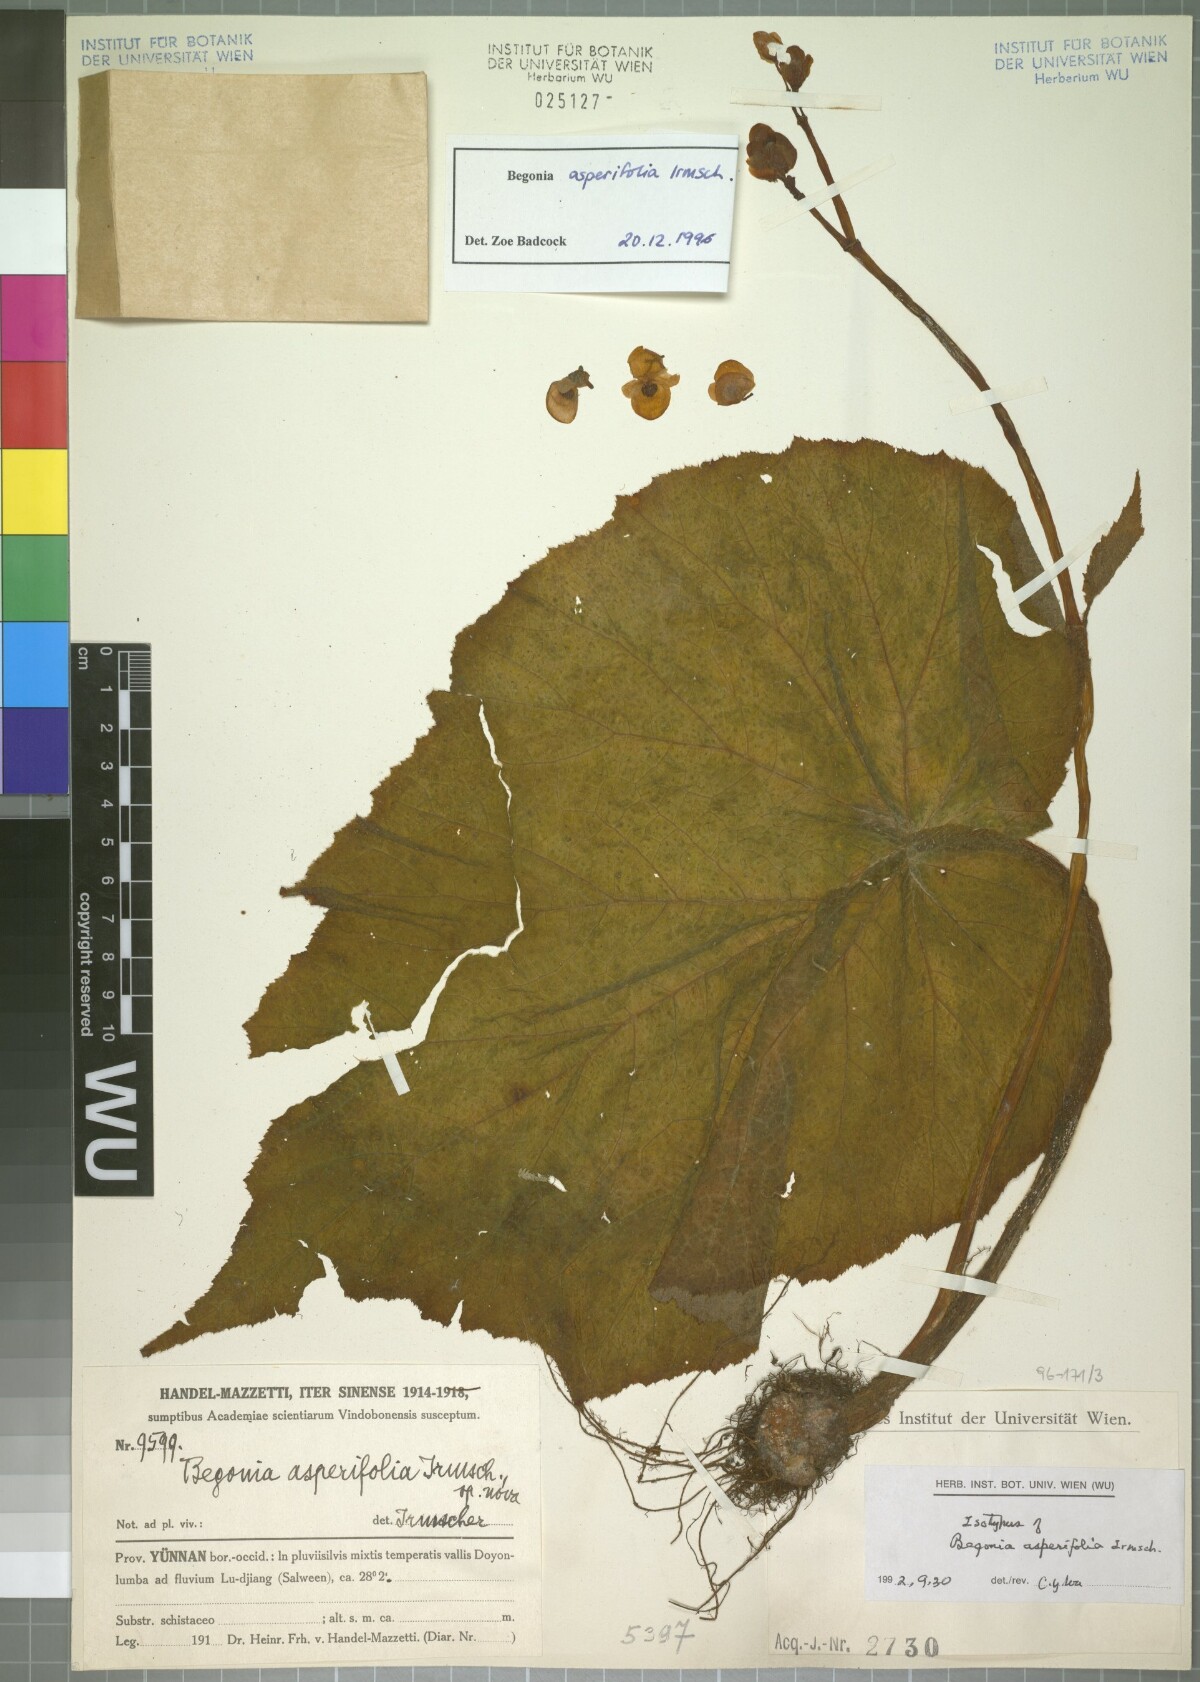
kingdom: Plantae
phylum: Tracheophyta
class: Magnoliopsida
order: Cucurbitales
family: Begoniaceae
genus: Begonia
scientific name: Begonia asperifolia
